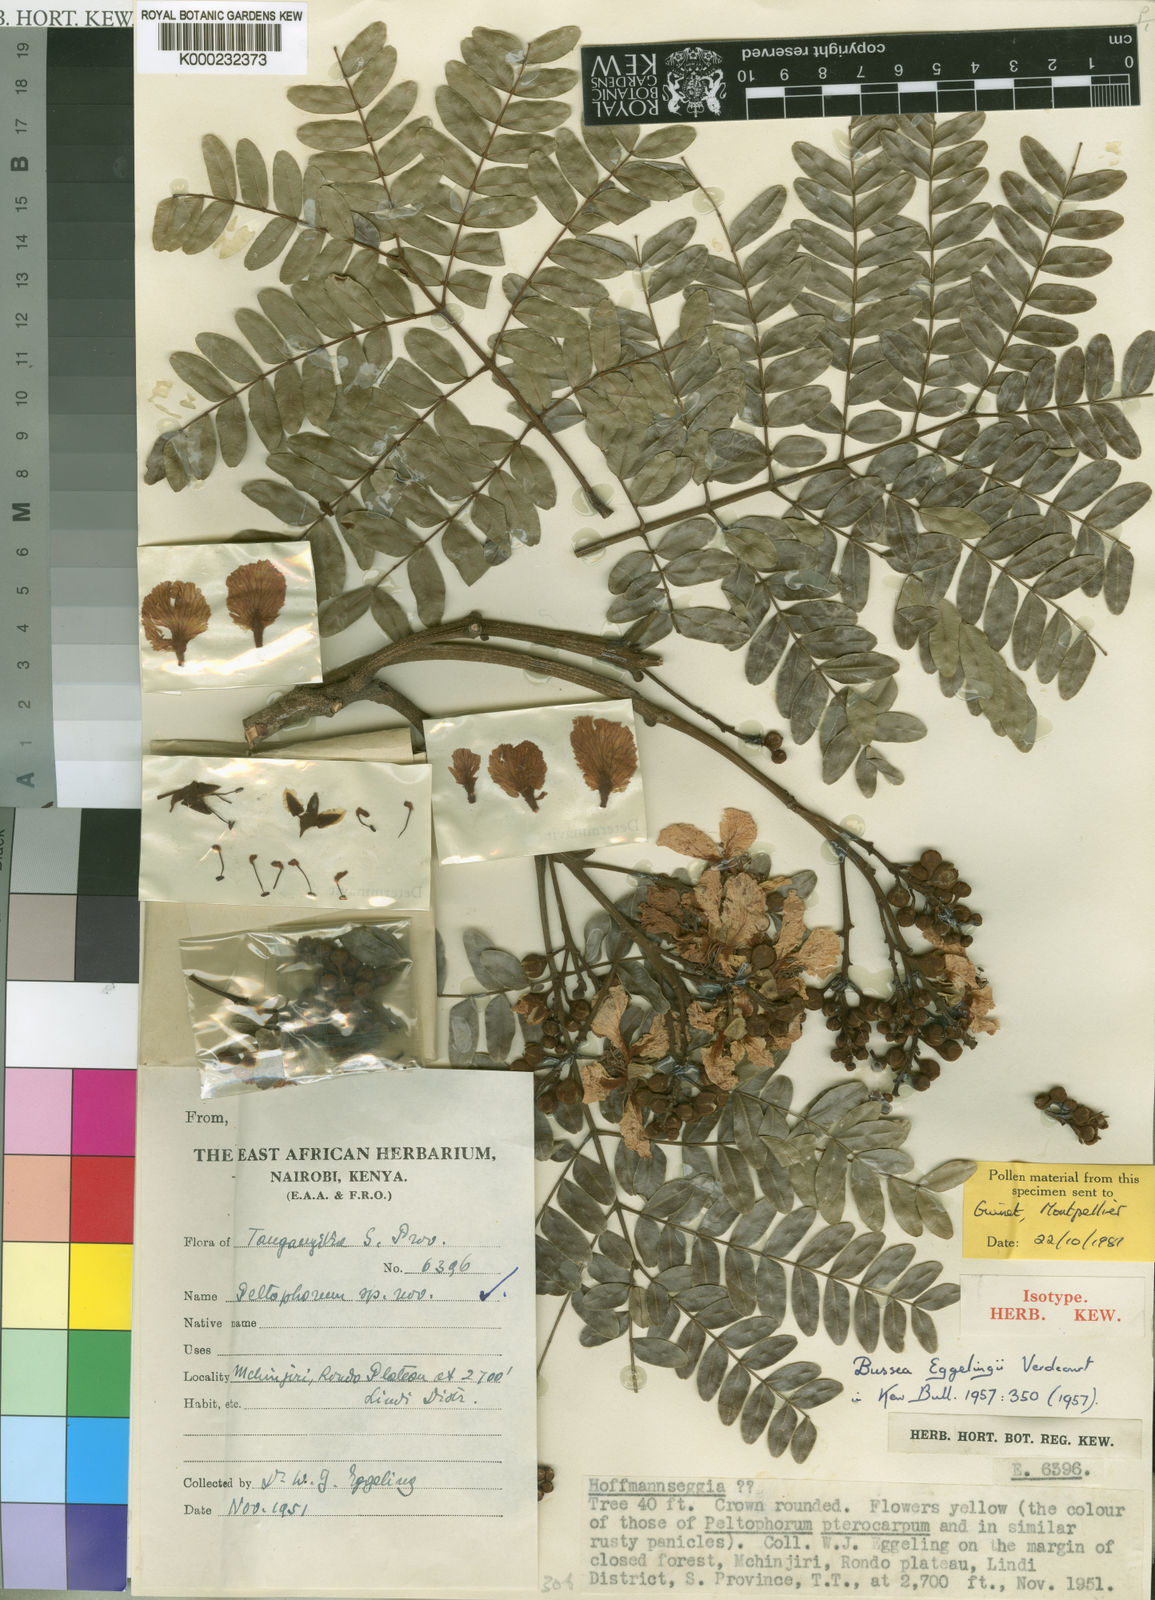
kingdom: Plantae
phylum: Tracheophyta
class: Magnoliopsida
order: Fabales
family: Fabaceae
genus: Bussea
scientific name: Bussea eggelingii
